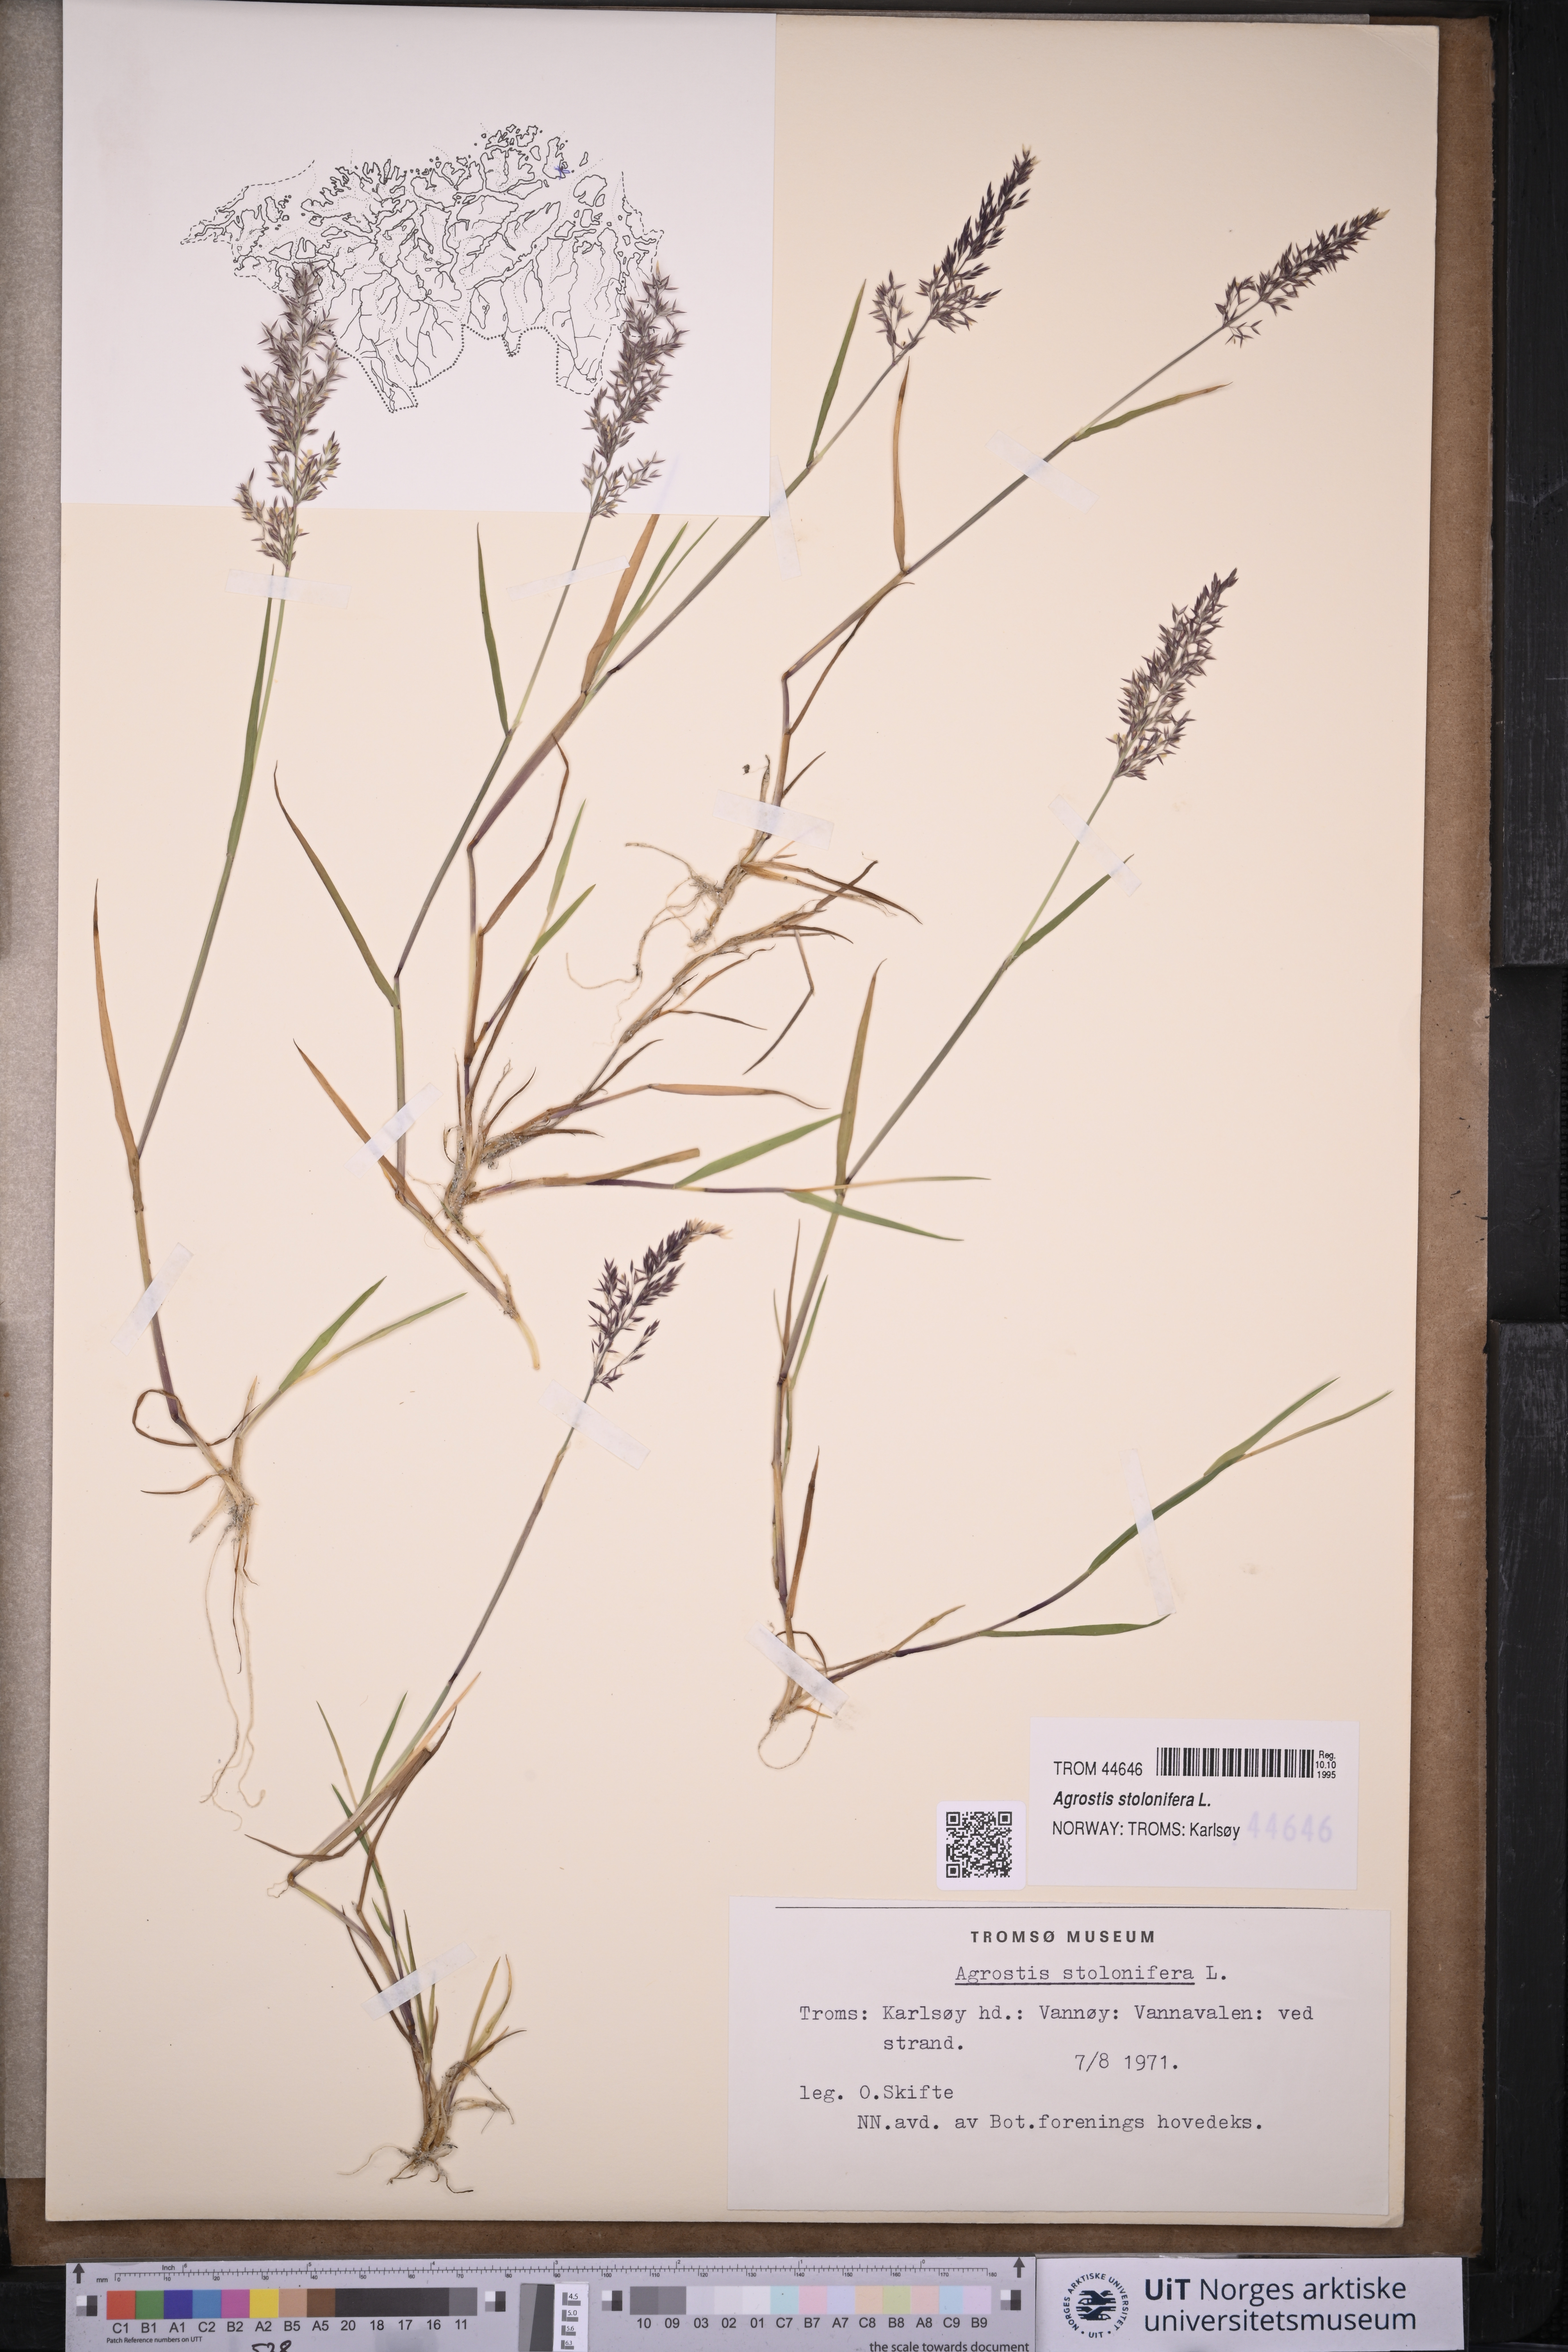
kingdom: Plantae
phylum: Tracheophyta
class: Liliopsida
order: Poales
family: Poaceae
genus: Agrostis
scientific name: Agrostis stolonifera
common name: Creeping bentgrass
